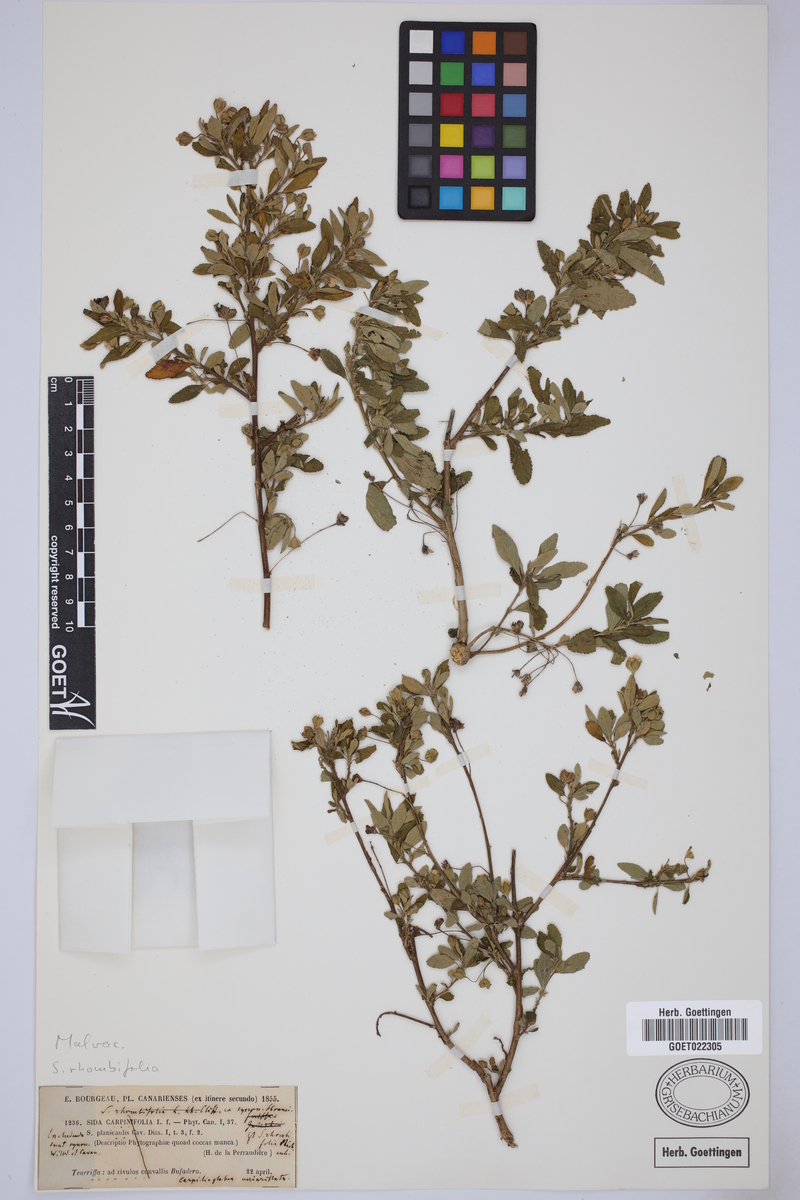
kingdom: Plantae
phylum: Tracheophyta
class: Magnoliopsida
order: Malvales
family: Malvaceae
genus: Sida
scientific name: Sida rhombifolia
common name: Queensland-hemp
